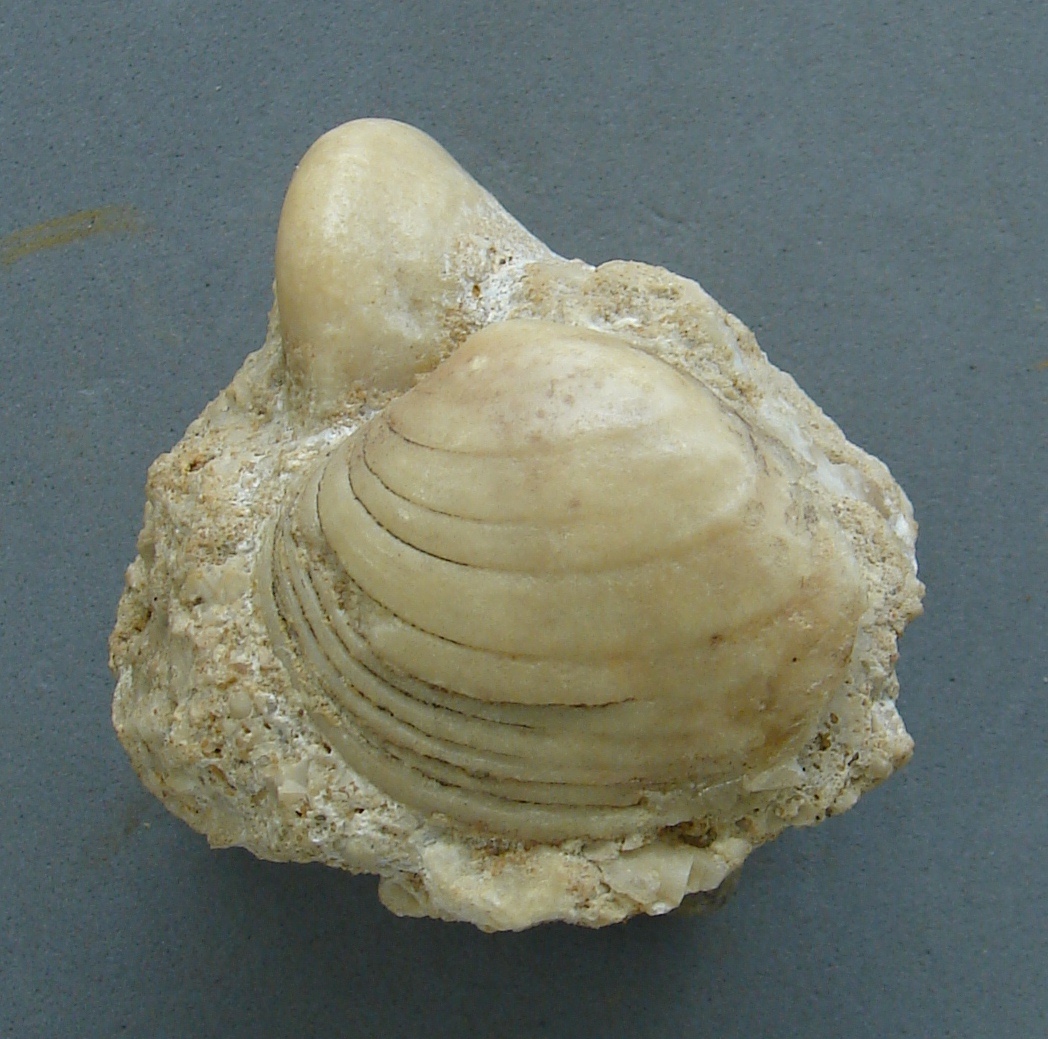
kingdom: Animalia
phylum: Mollusca
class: Bivalvia
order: Carditida
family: Cardiniidae
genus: Cardinia
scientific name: Cardinia listeri
